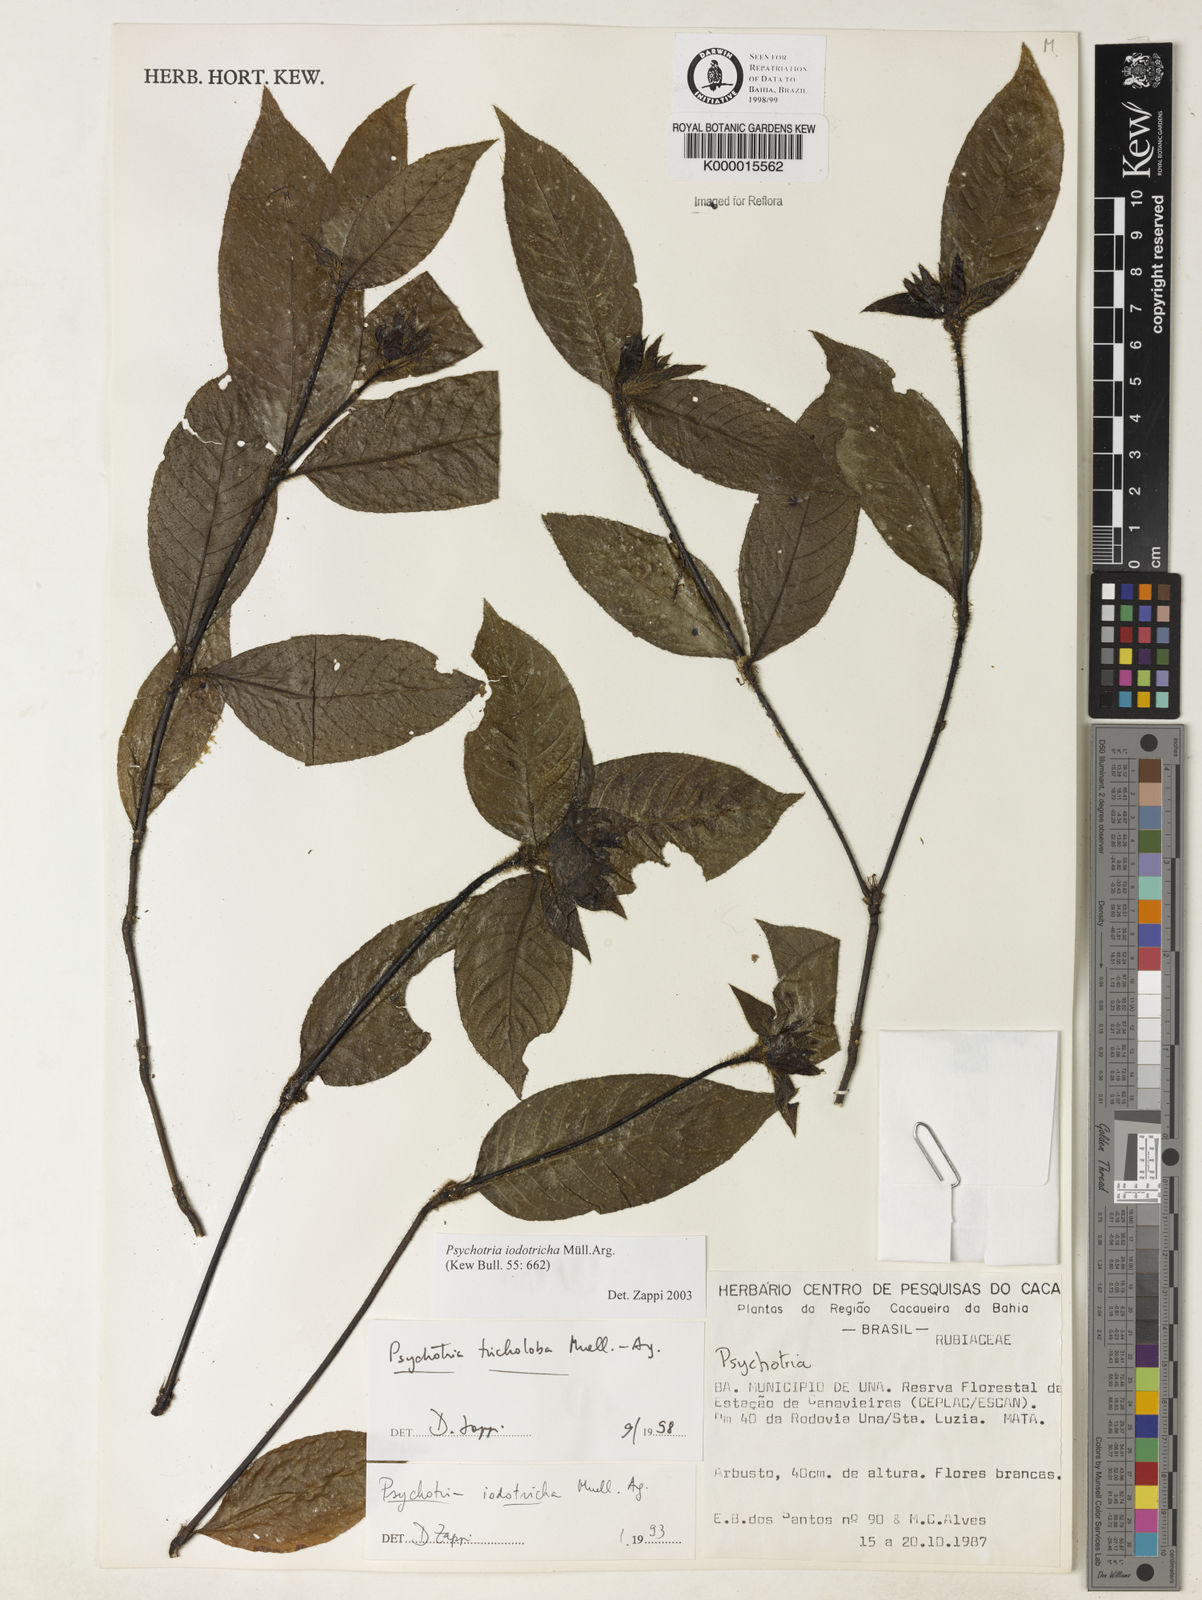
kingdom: Plantae
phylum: Tracheophyta
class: Magnoliopsida
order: Gentianales
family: Rubiaceae
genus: Palicourea
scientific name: Palicourea iodotricha
